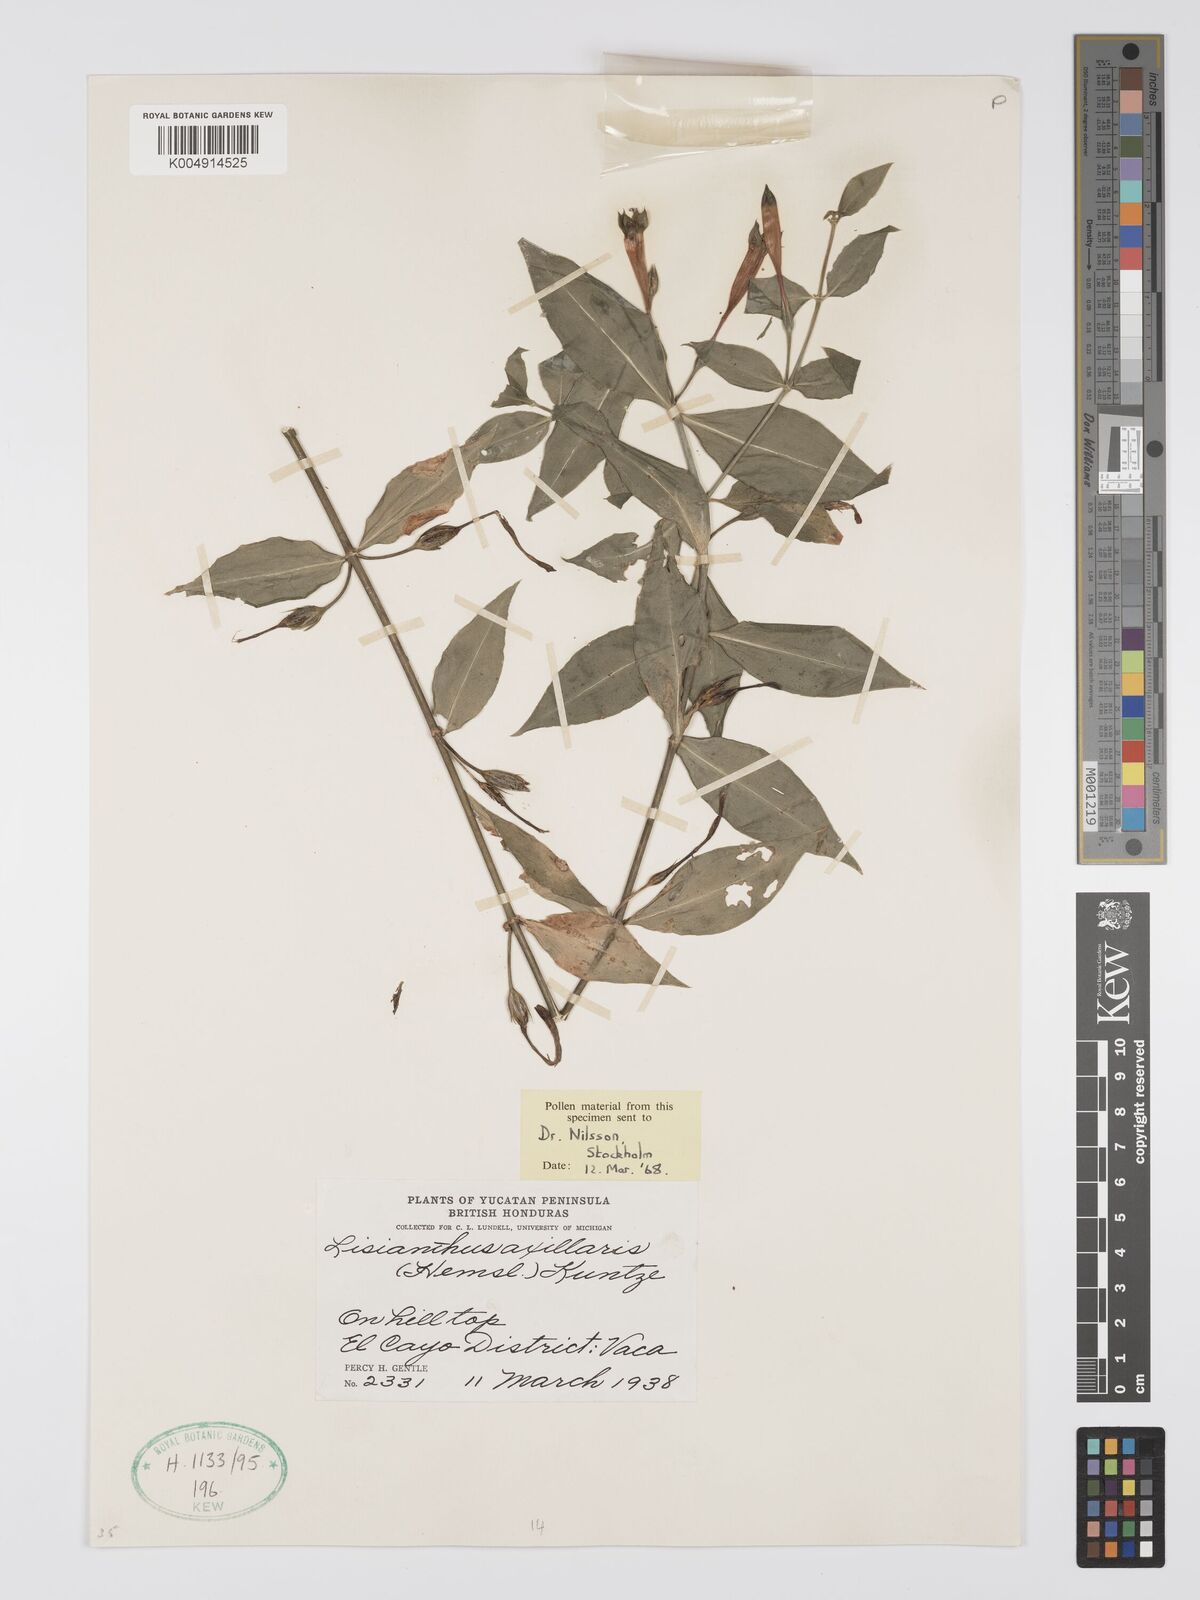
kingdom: Plantae
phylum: Tracheophyta
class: Magnoliopsida
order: Gentianales
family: Gentianaceae
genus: Lisianthius
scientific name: Lisianthius
